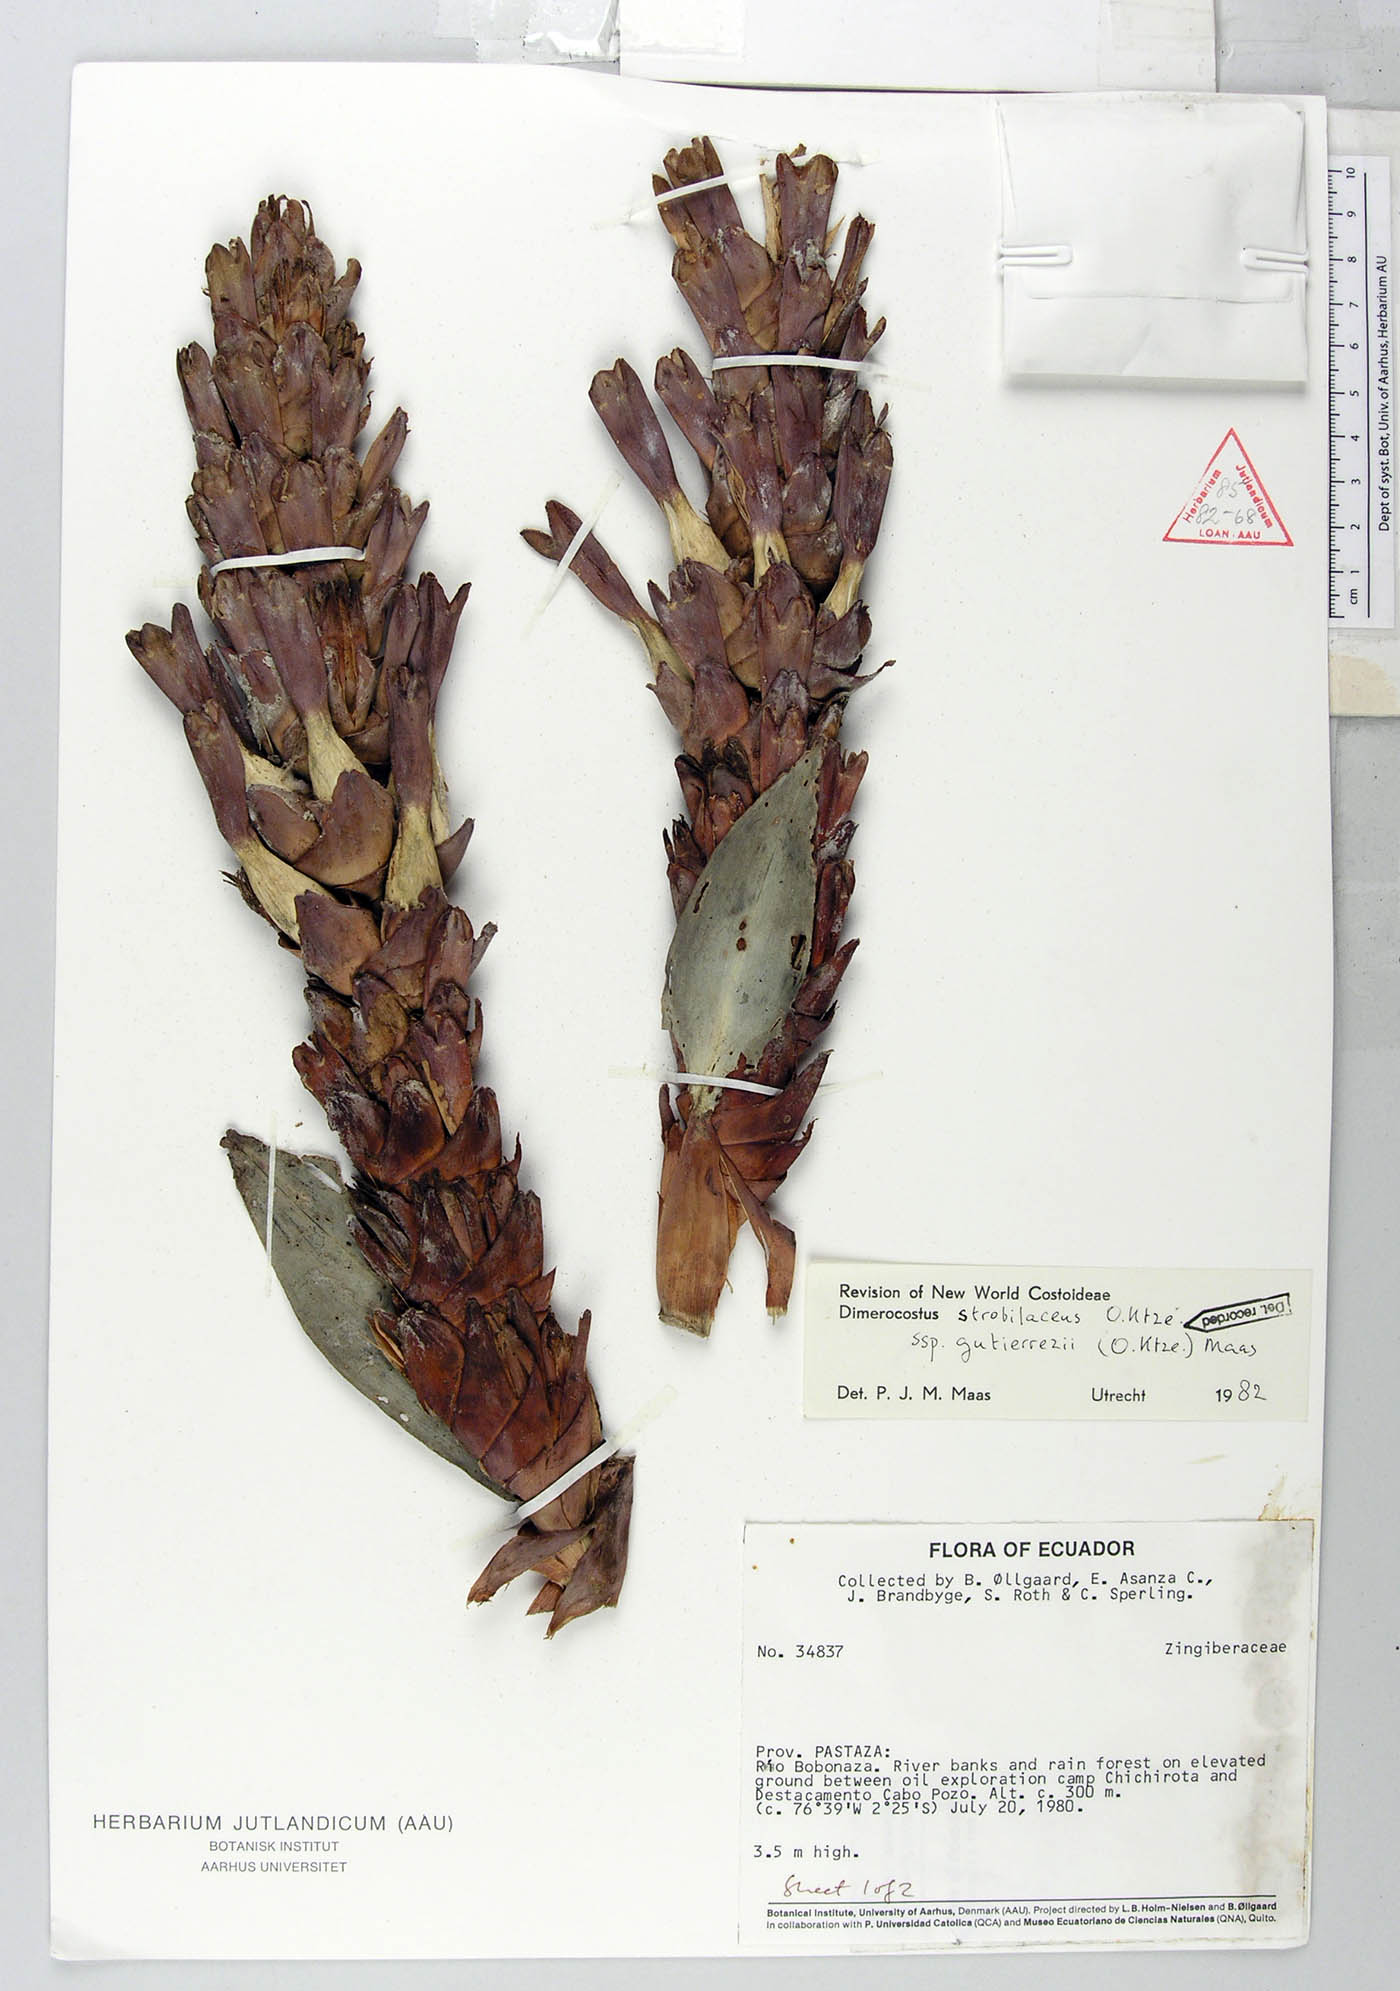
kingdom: Plantae
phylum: Tracheophyta
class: Liliopsida
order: Zingiberales
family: Costaceae
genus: Dimerocostus
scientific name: Dimerocostus strobilaceus
